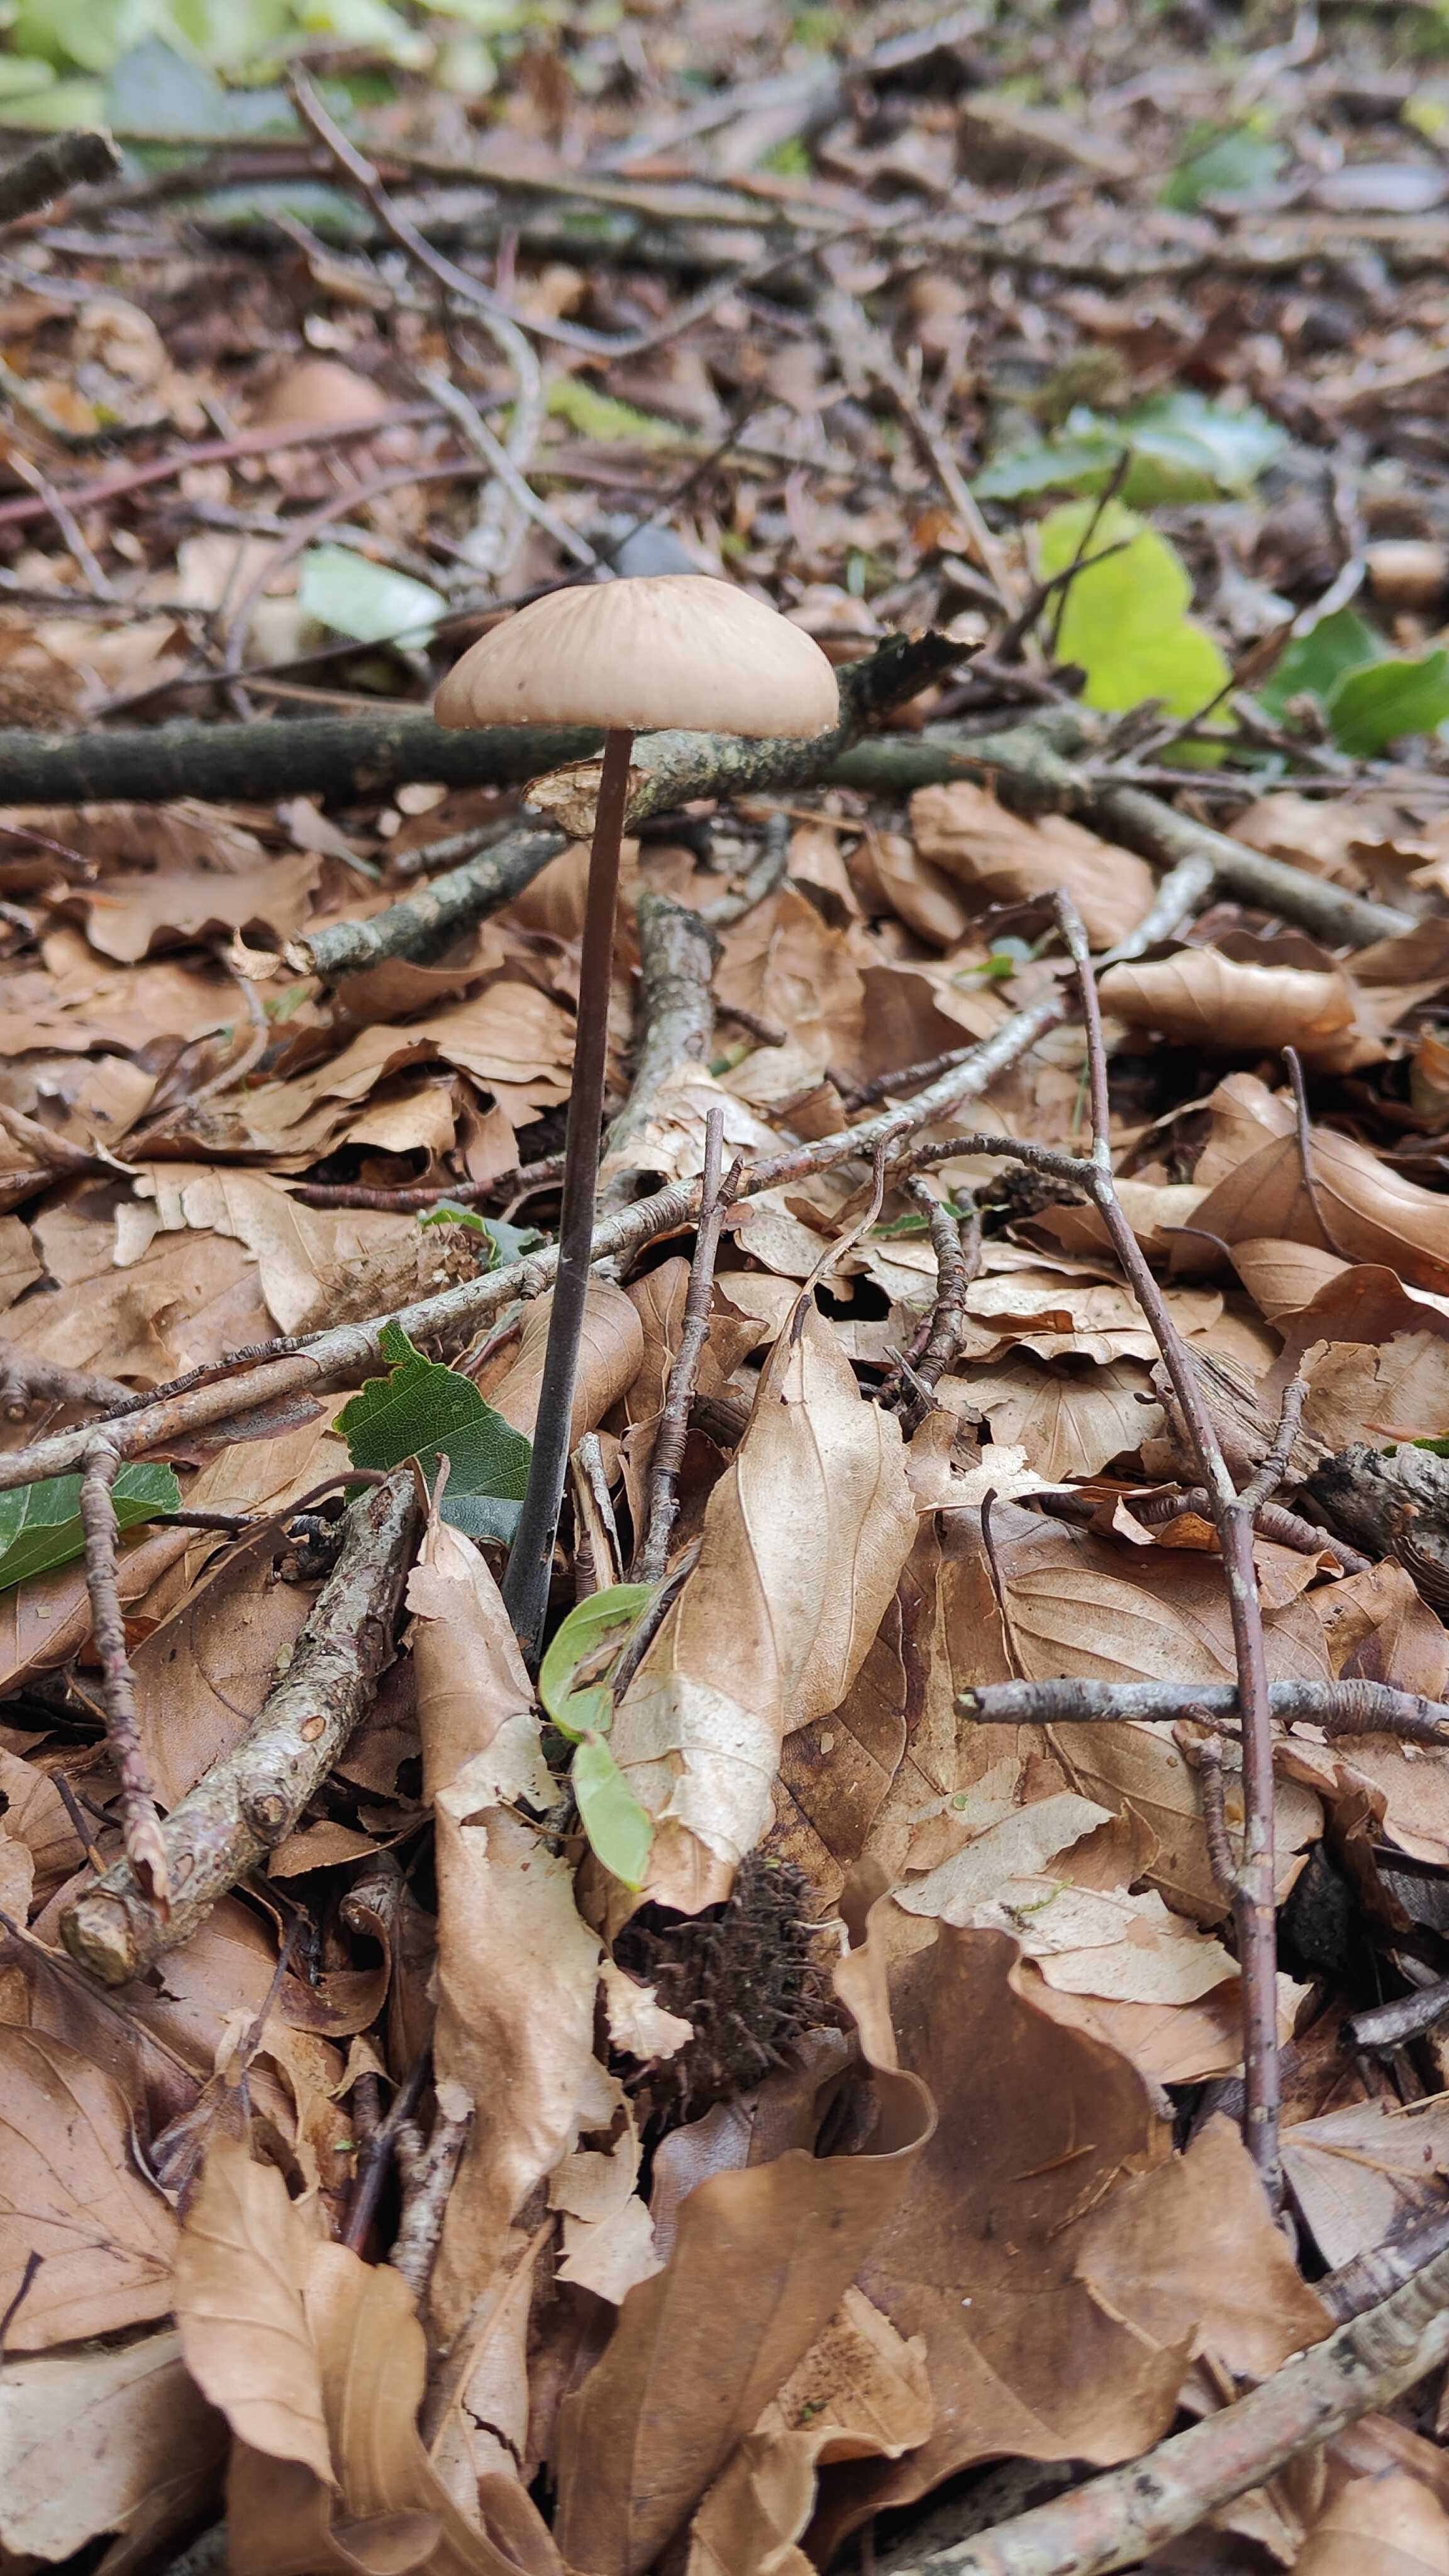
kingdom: Fungi
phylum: Basidiomycota
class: Agaricomycetes
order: Agaricales
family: Omphalotaceae
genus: Mycetinis
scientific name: Mycetinis alliaceus
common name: stor løghat
